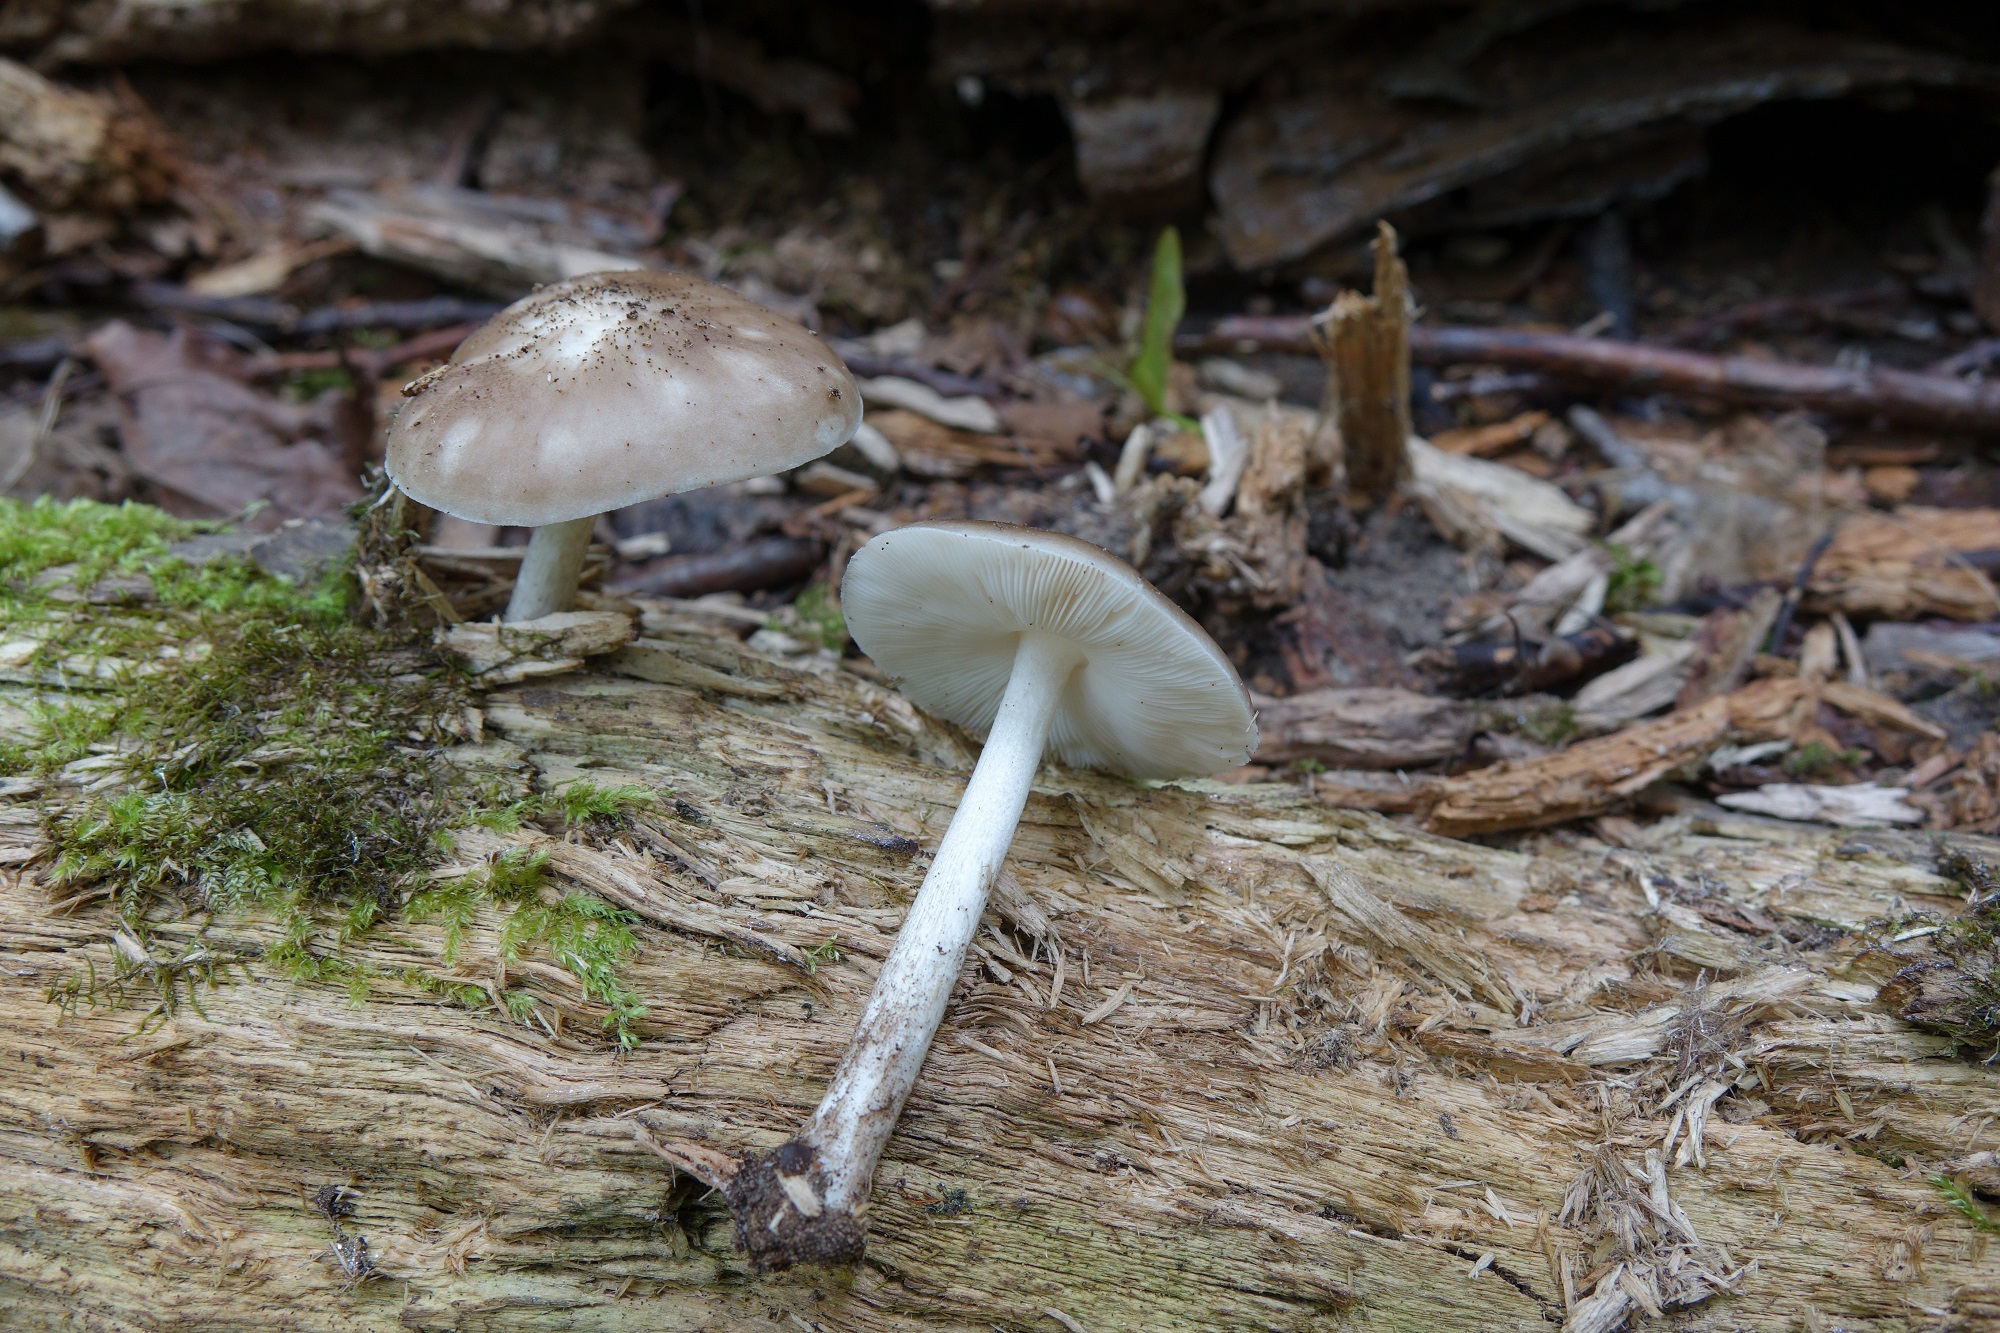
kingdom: Fungi
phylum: Basidiomycota
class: Agaricomycetes
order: Agaricales
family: Pluteaceae
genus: Pluteus
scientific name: Pluteus cervinus
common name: Deer shield
